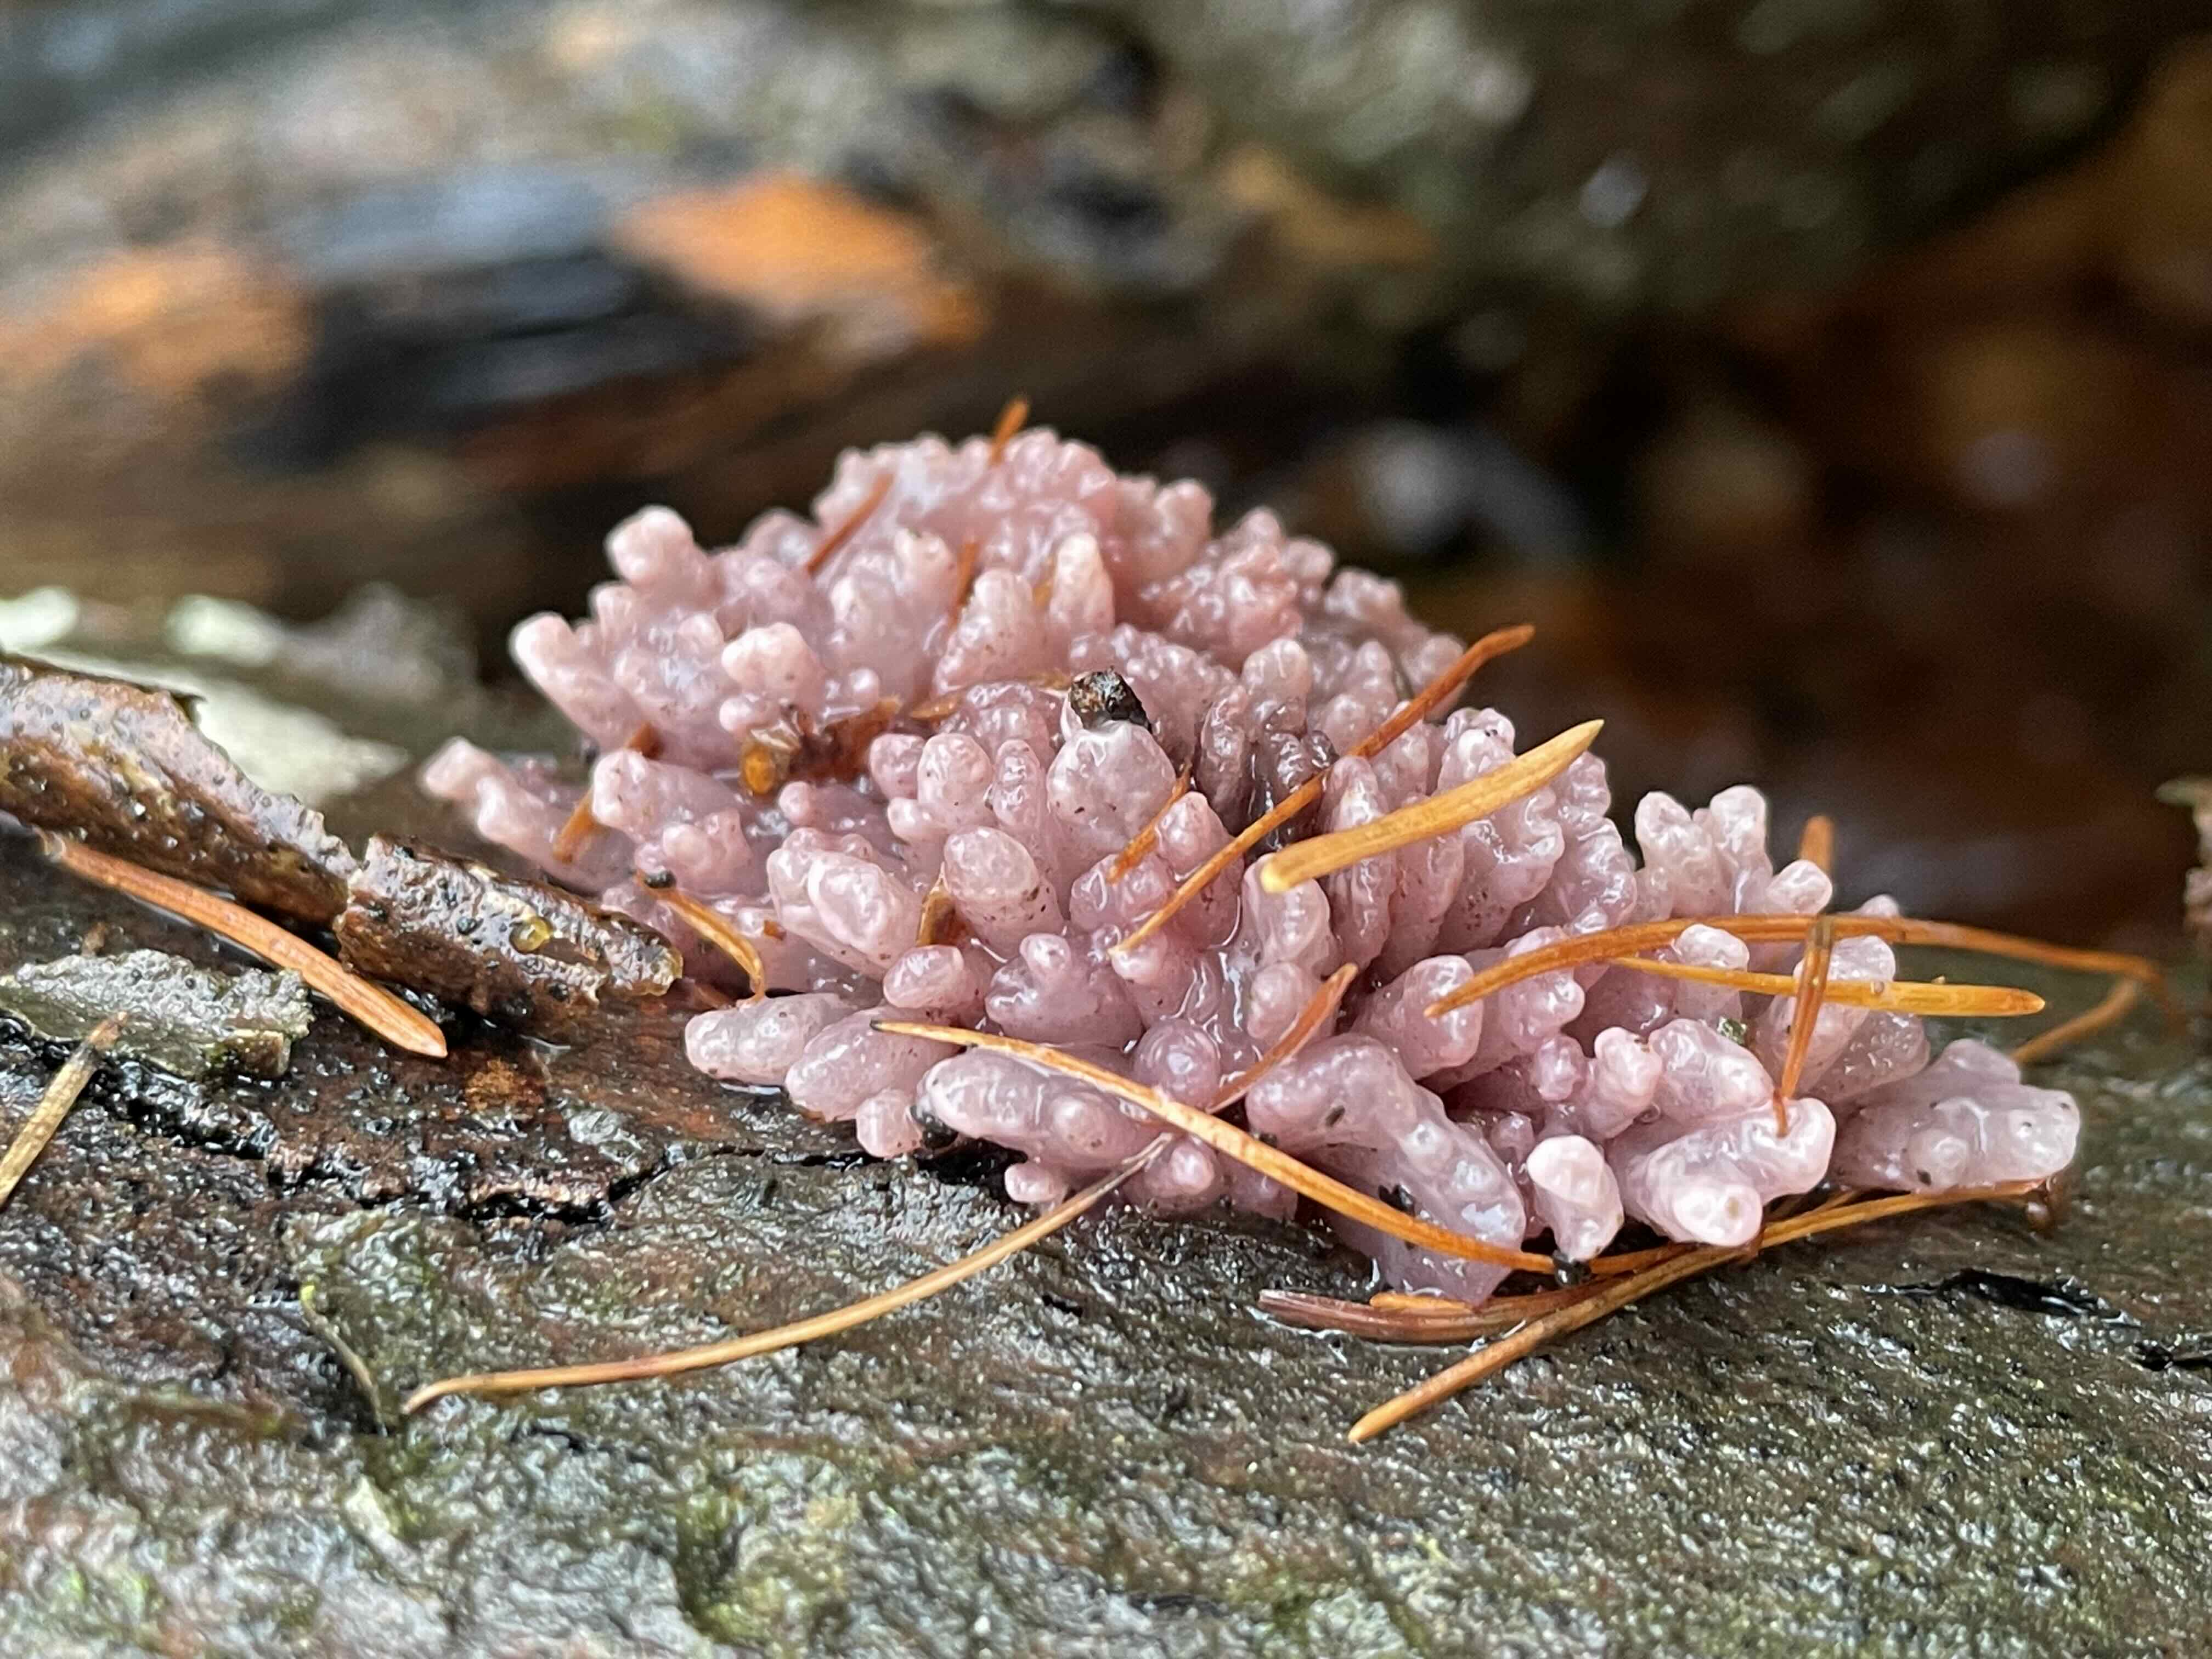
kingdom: Fungi
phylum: Ascomycota
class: Leotiomycetes
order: Helotiales
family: Gelatinodiscaceae
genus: Ascocoryne
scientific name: Ascocoryne sarcoides
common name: rødlilla sejskive
